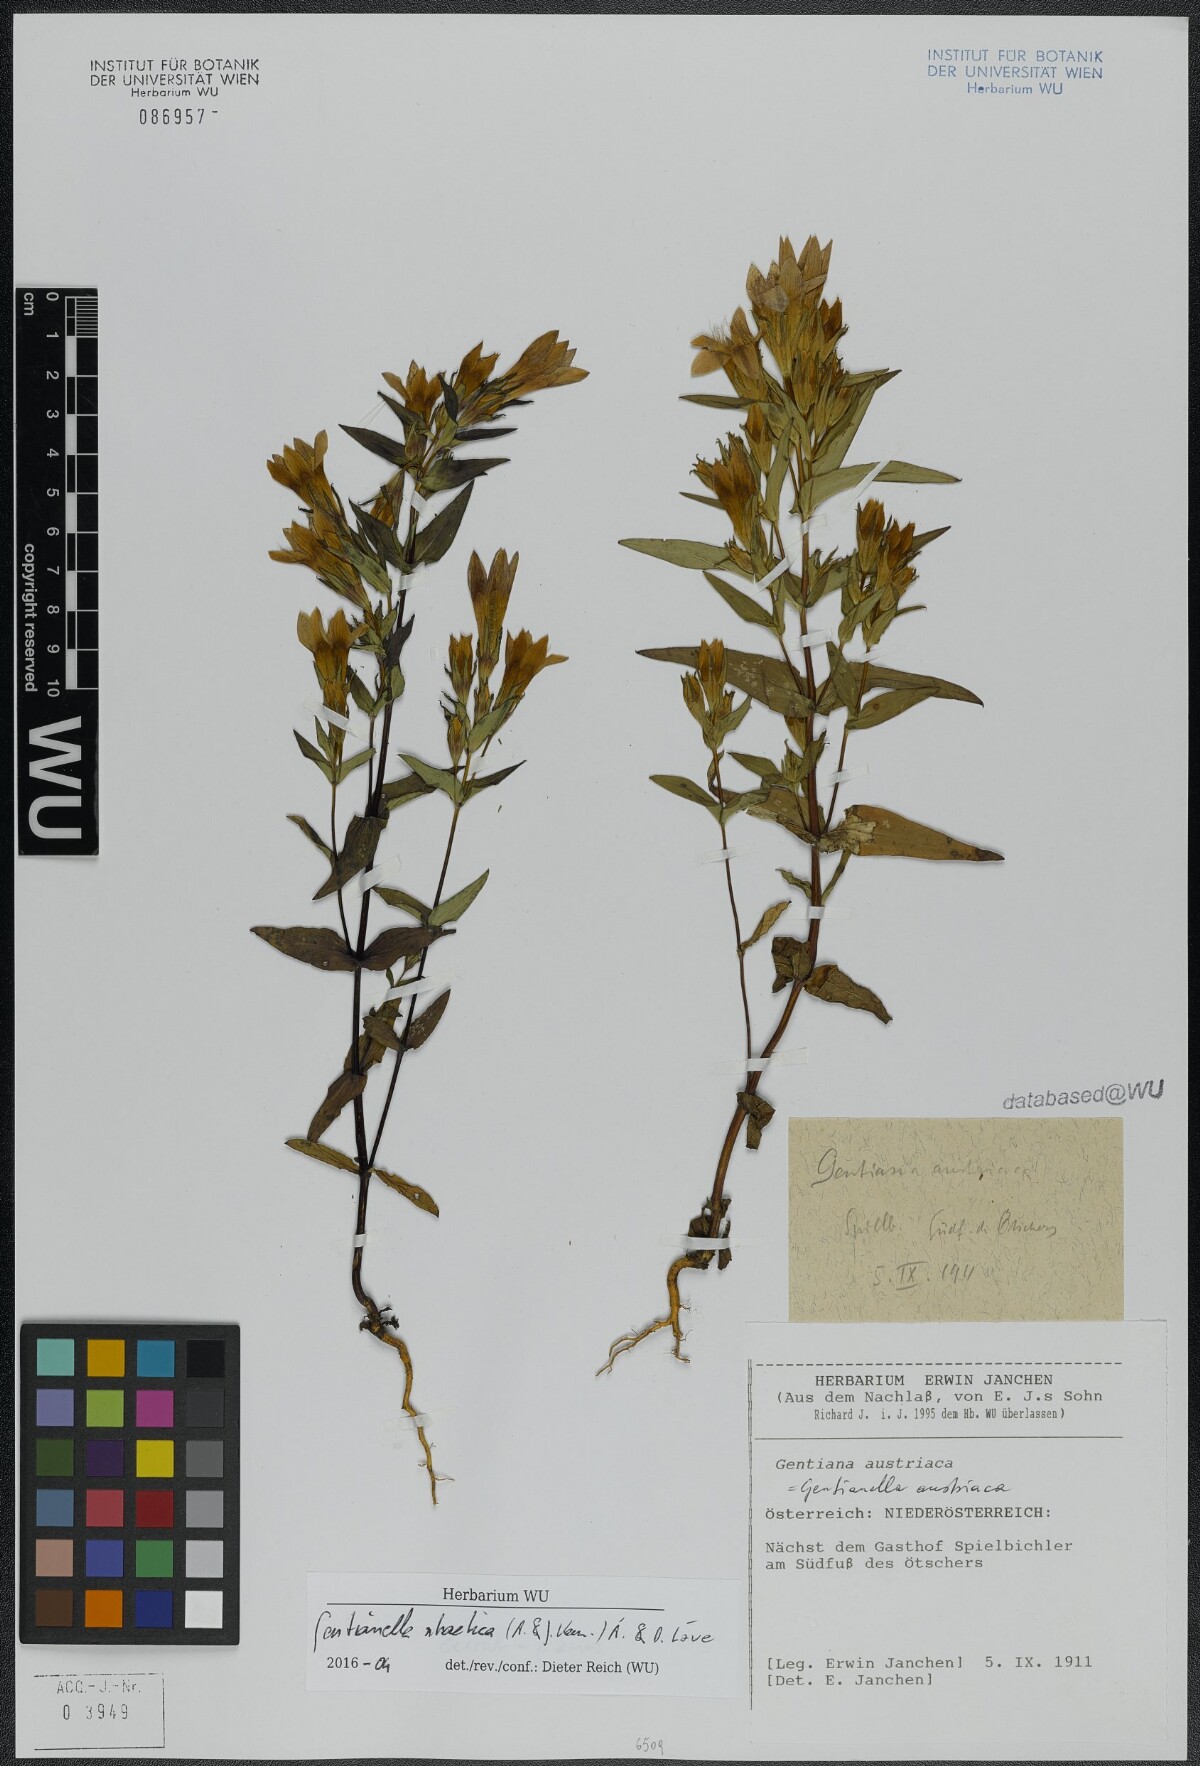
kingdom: Plantae
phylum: Tracheophyta
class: Magnoliopsida
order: Gentianales
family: Gentianaceae
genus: Gentianella
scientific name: Gentianella rhaetica
